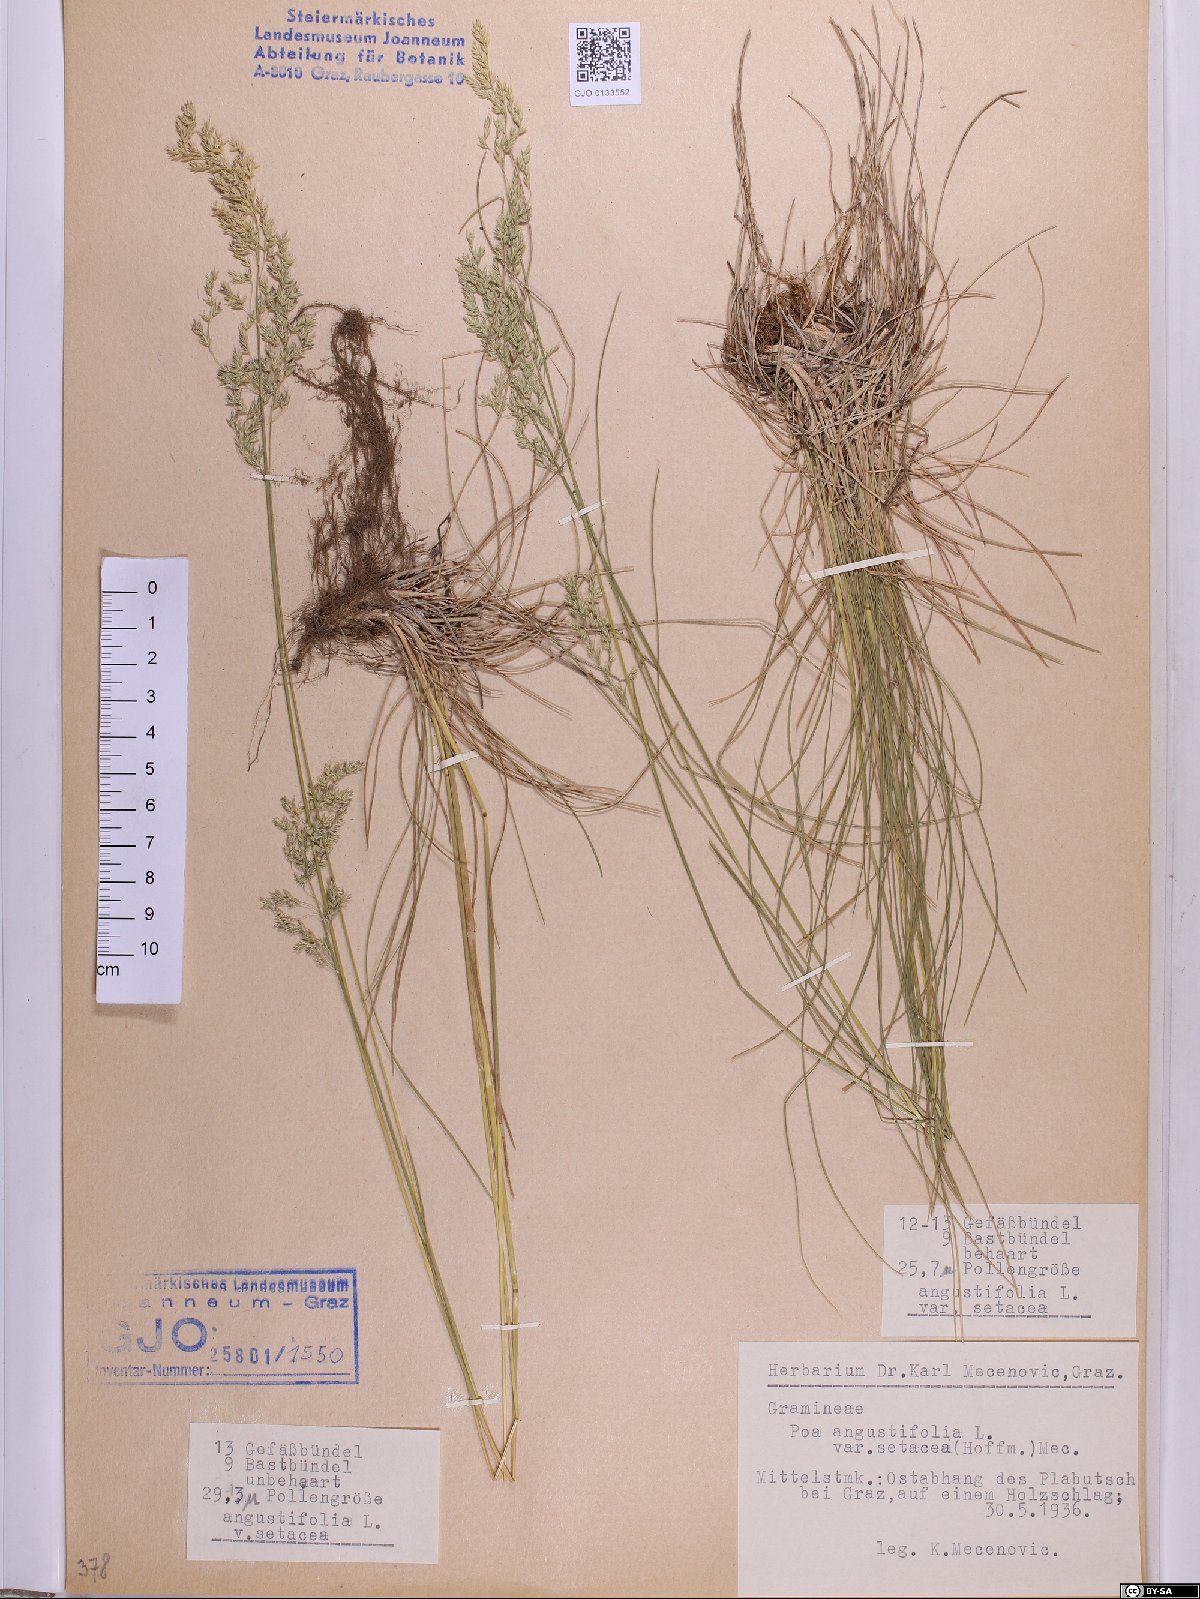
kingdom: Plantae
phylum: Tracheophyta
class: Liliopsida
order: Poales
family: Poaceae
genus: Poa
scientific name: Poa angustifolia
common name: Narrow-leaved meadow-grass
